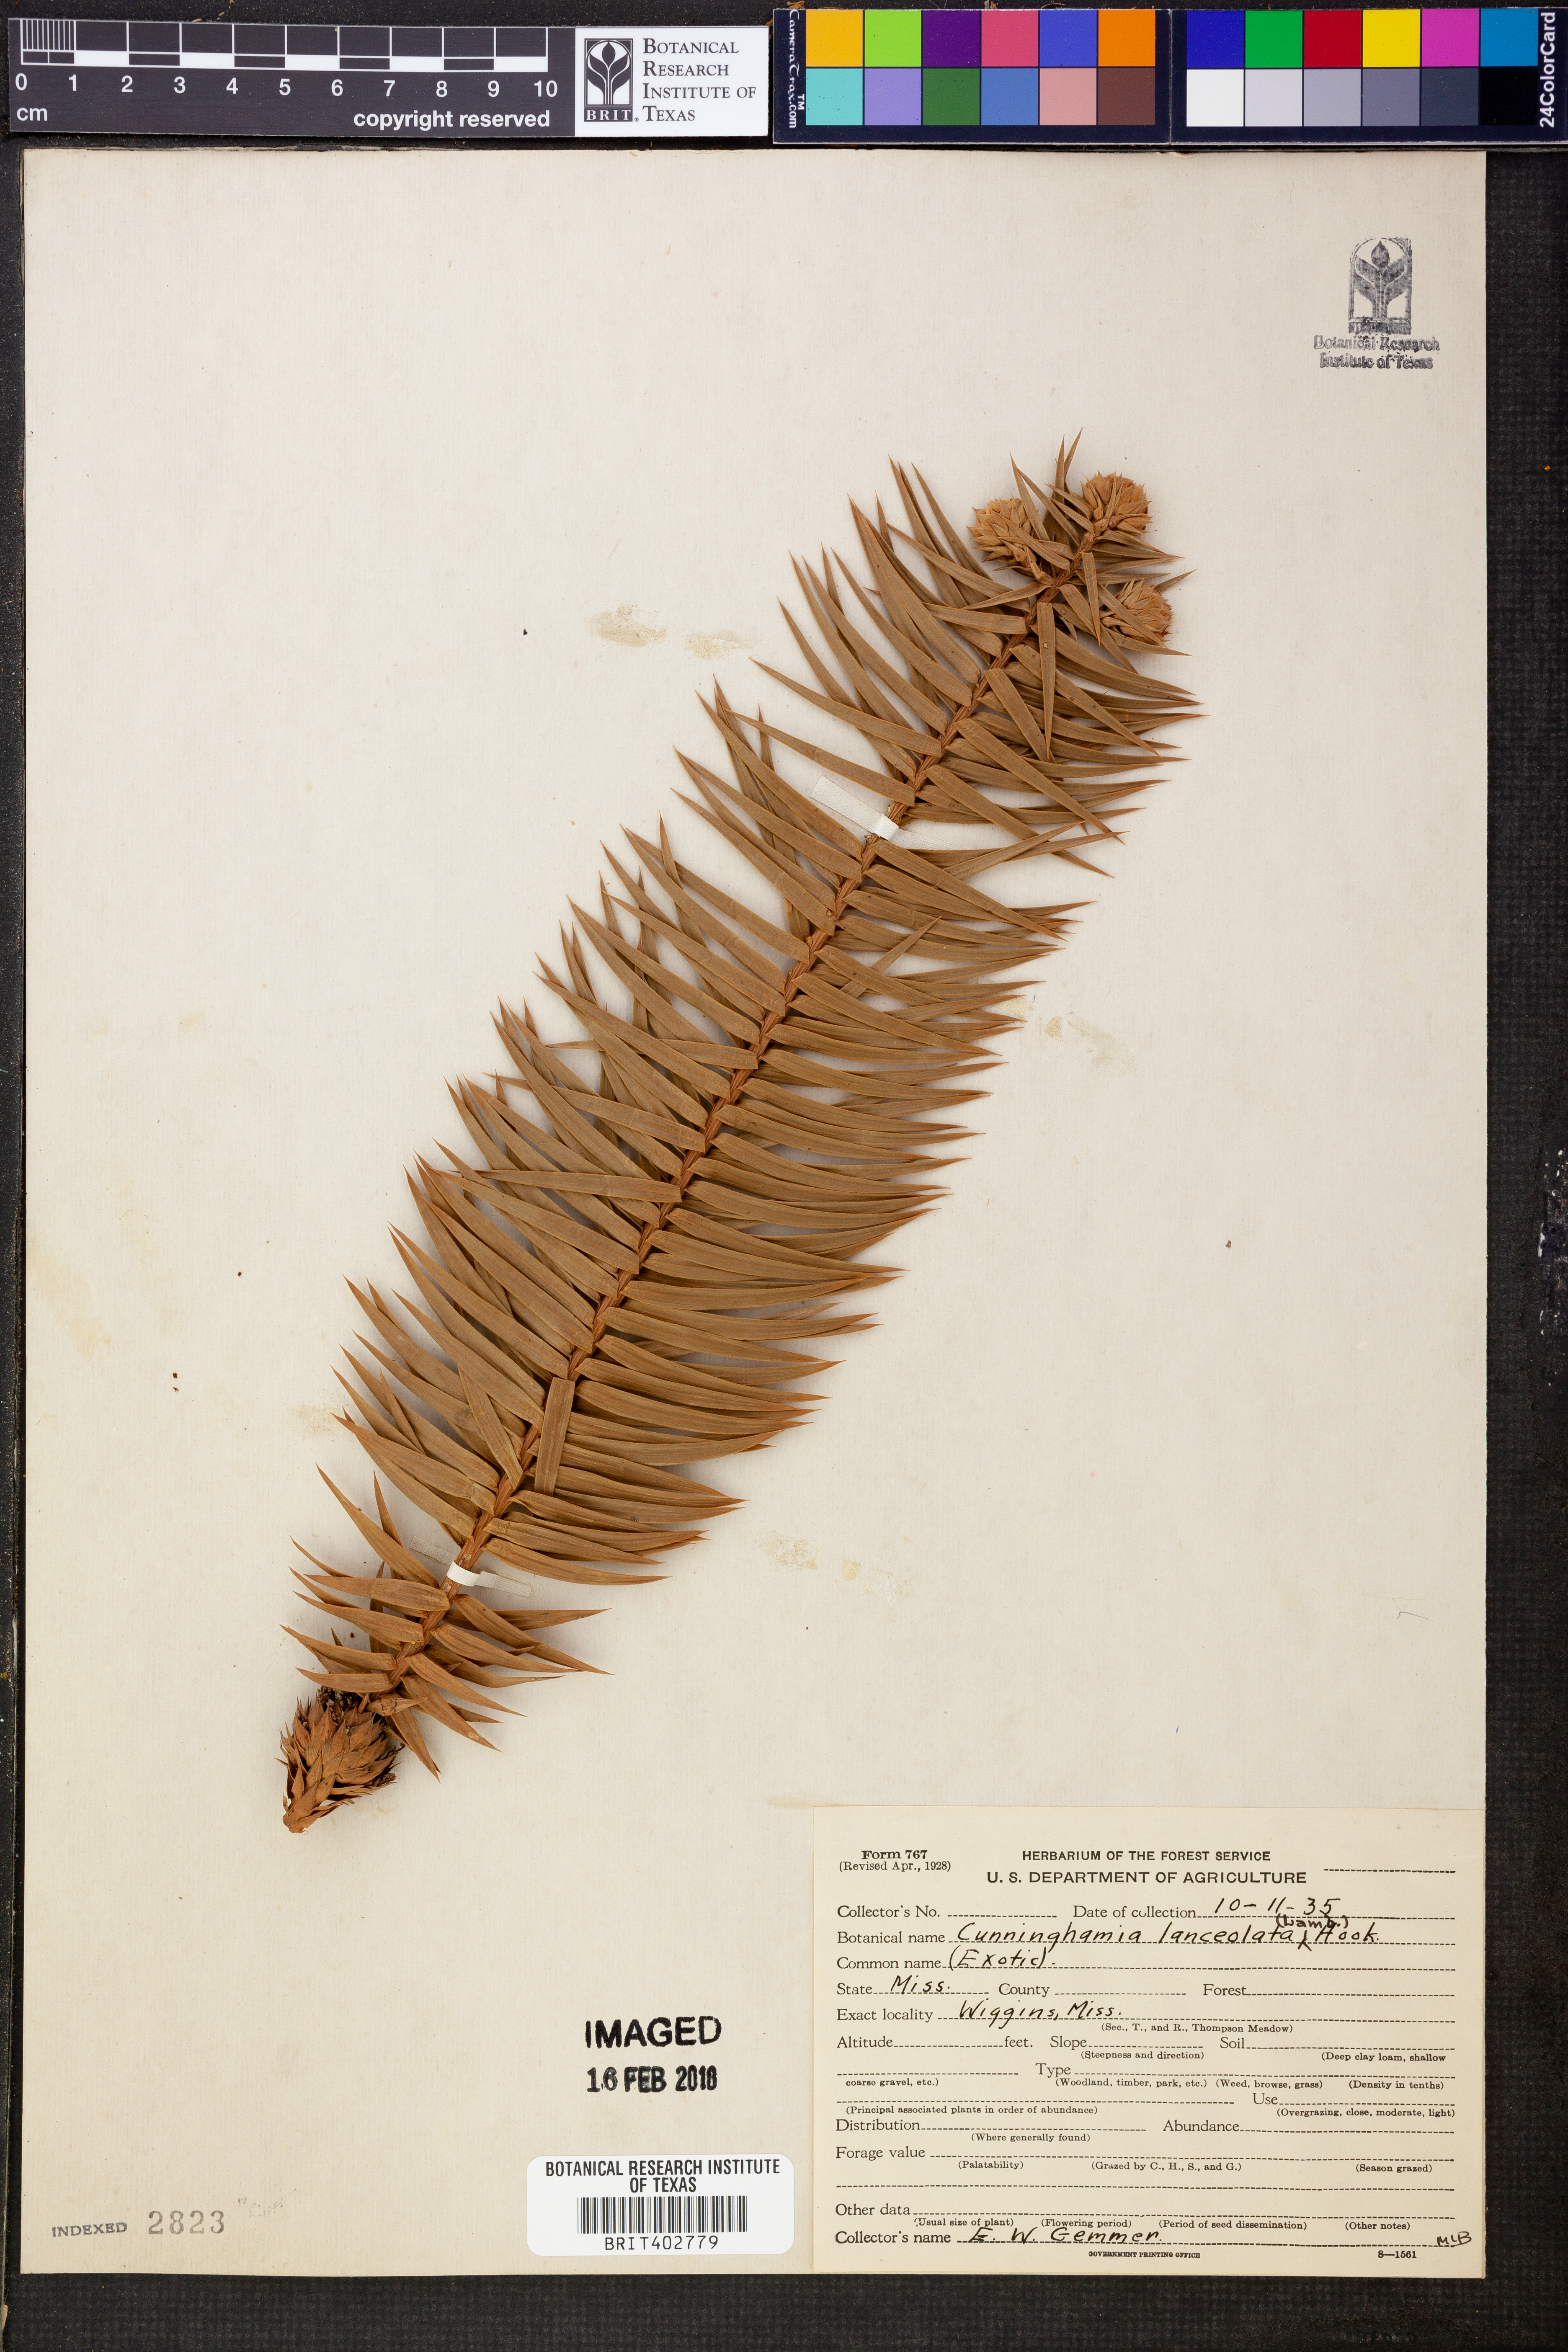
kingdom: Plantae
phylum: Tracheophyta
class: Pinopsida
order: Pinales
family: Cupressaceae
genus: Cunninghamia
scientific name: Cunninghamia lanceolata
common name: Chinese fir
